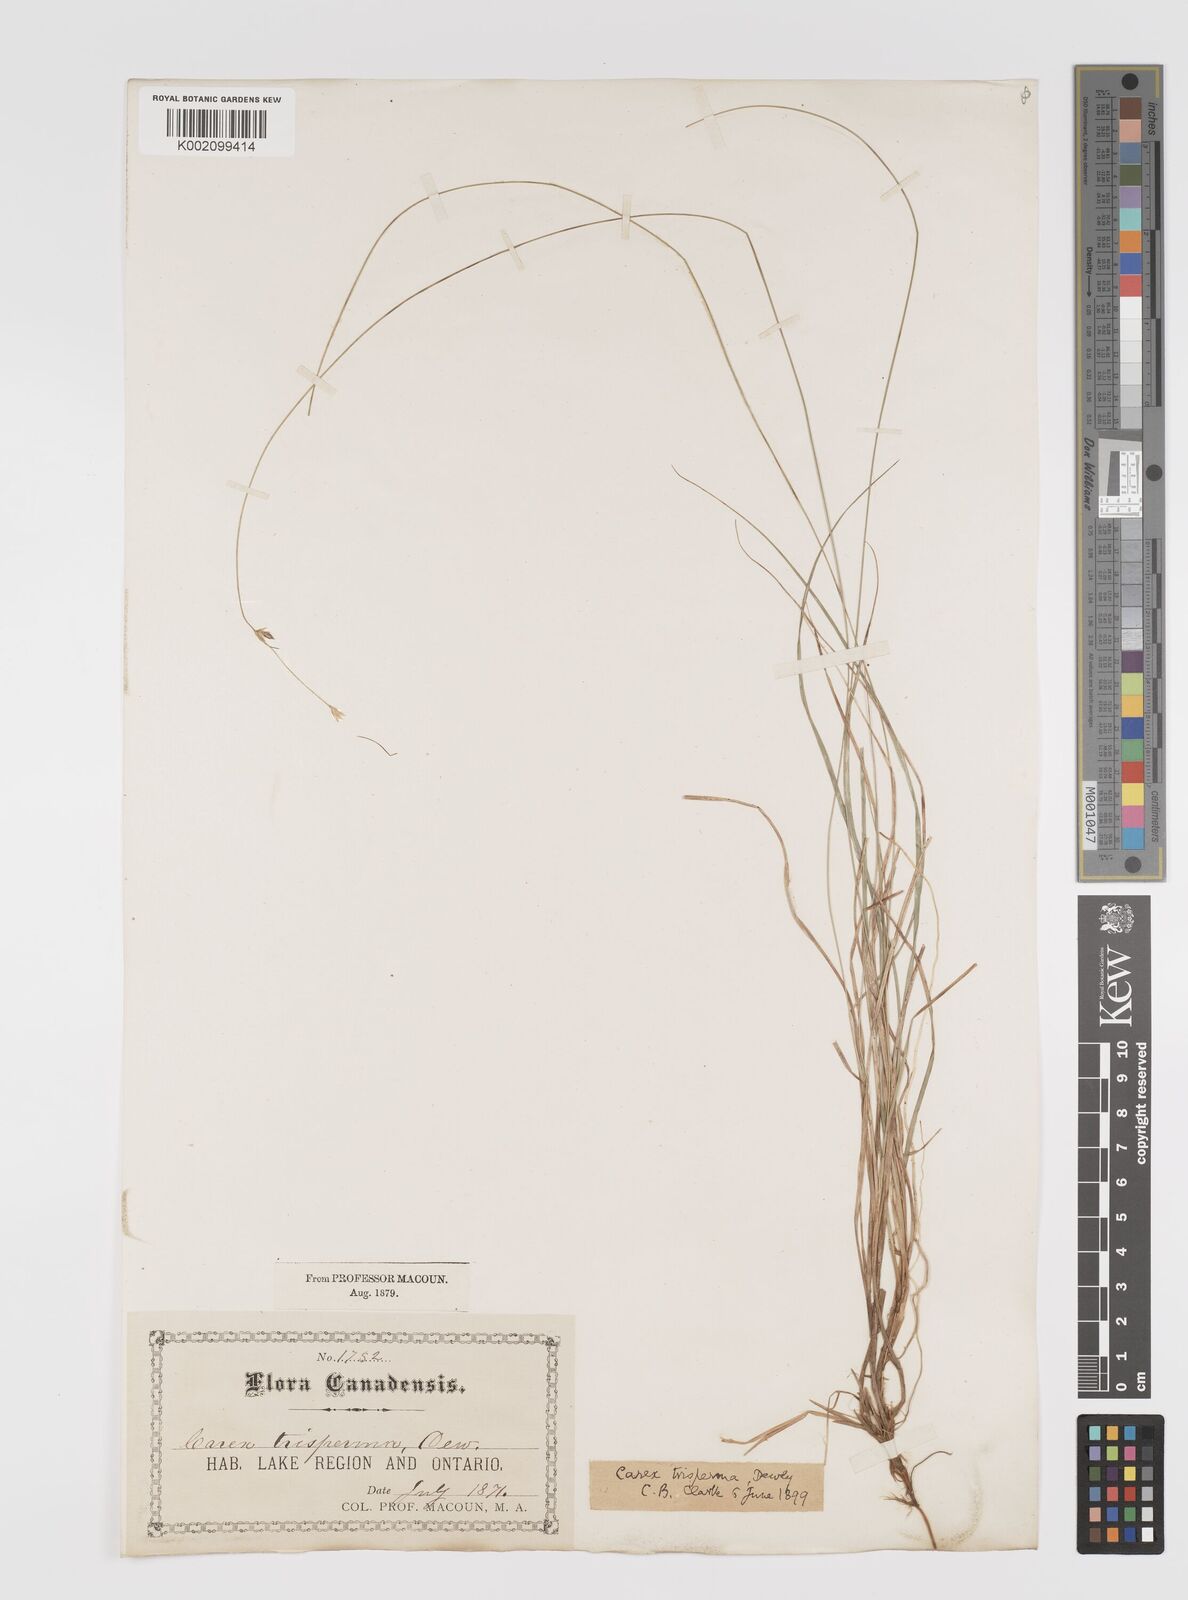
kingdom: Plantae
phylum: Tracheophyta
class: Liliopsida
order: Poales
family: Cyperaceae
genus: Carex
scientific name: Carex trisperma
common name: Three-seeded sedge
